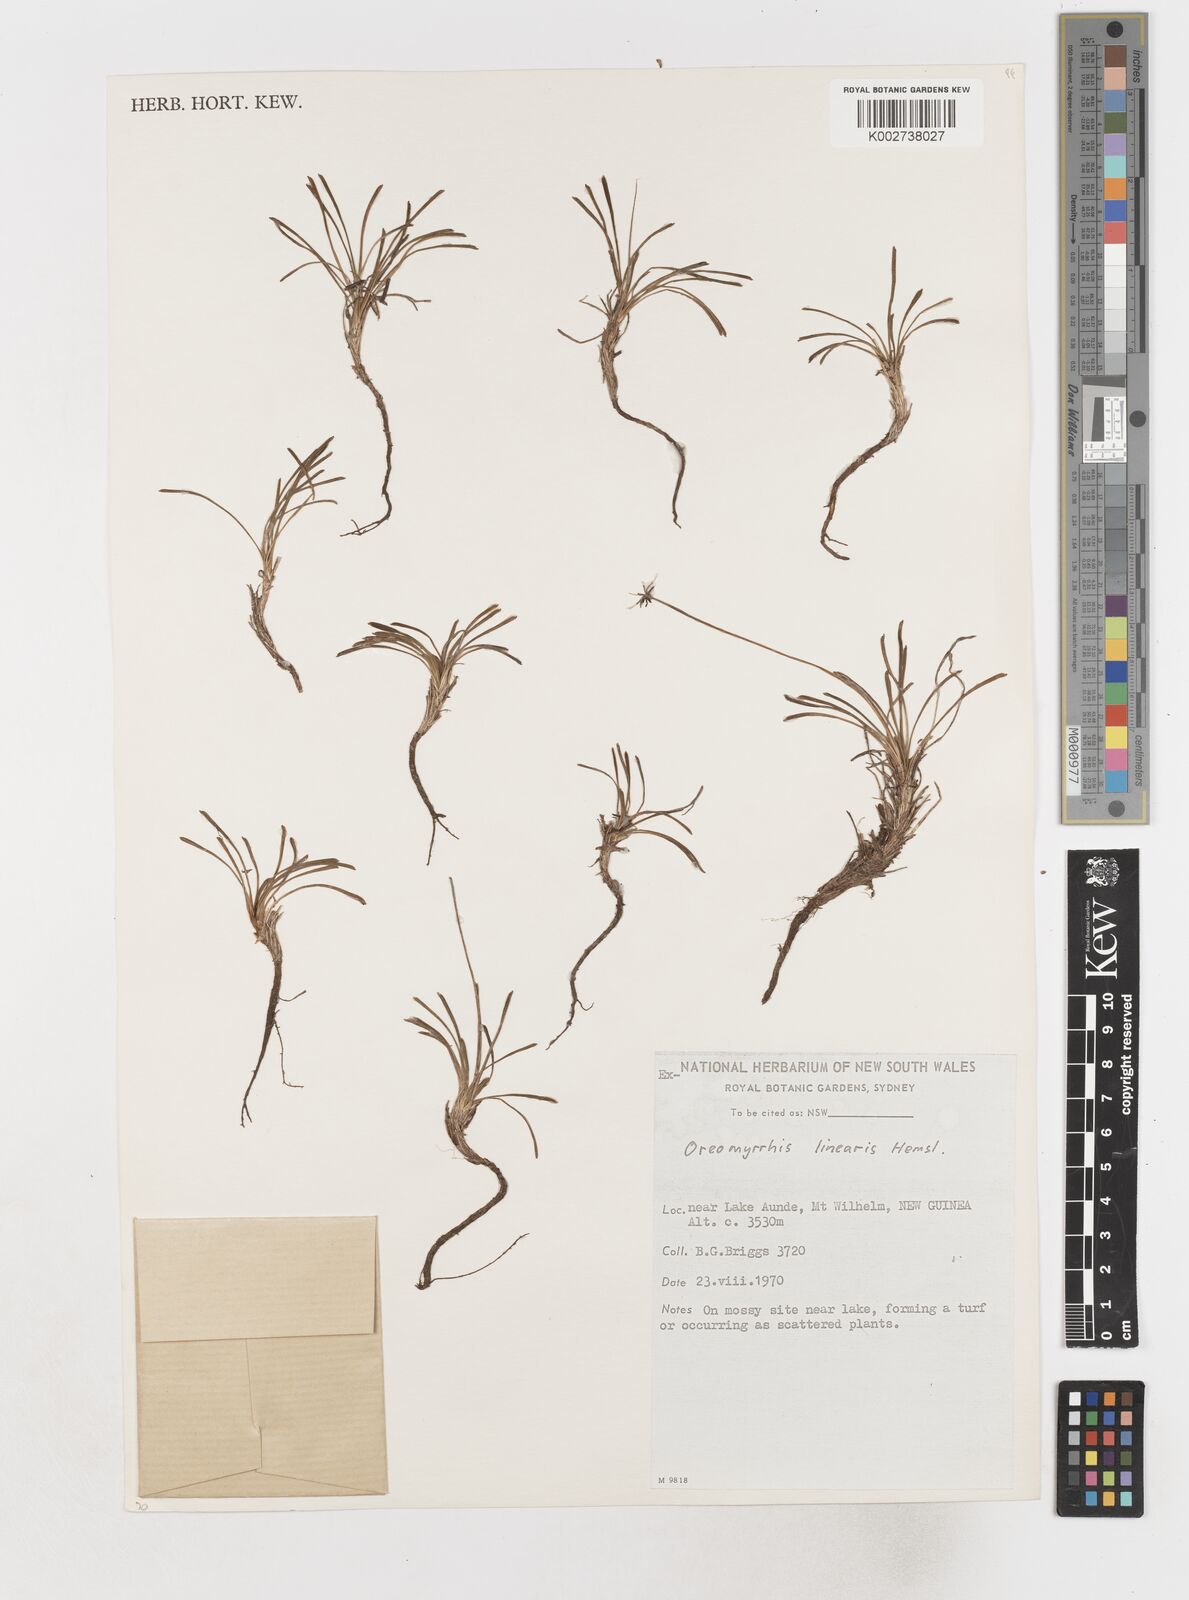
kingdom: Plantae
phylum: Tracheophyta
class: Magnoliopsida
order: Apiales
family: Apiaceae
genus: Chaerophyllum
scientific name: Chaerophyllum lineare
